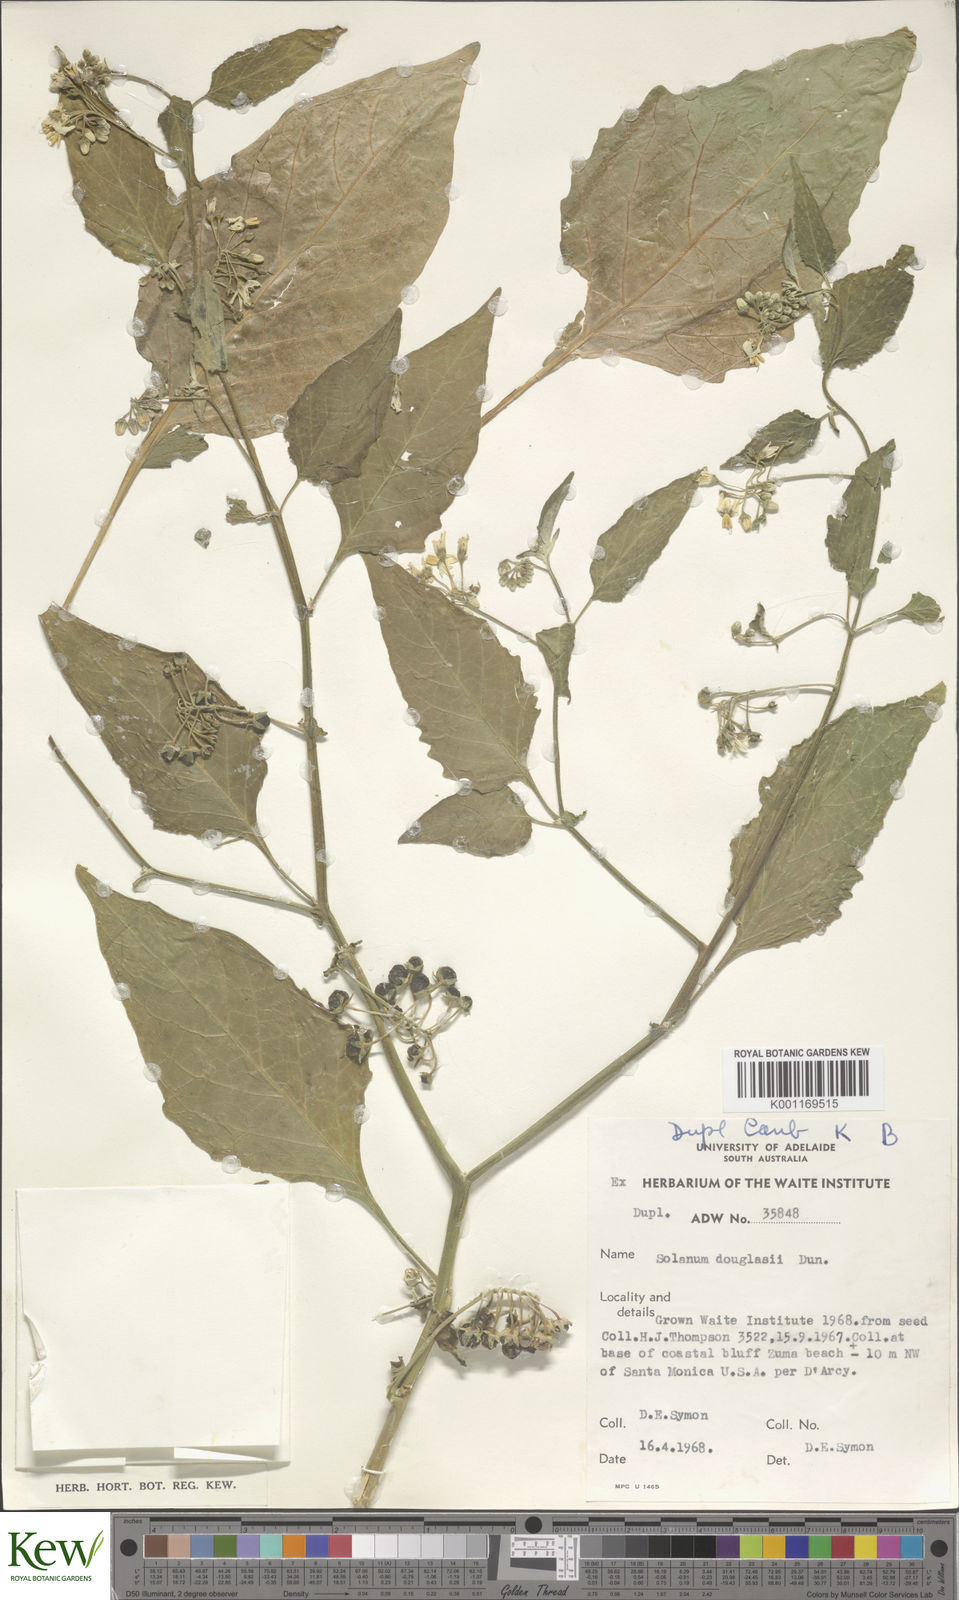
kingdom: Plantae
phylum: Tracheophyta
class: Magnoliopsida
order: Solanales
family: Solanaceae
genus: Solanum
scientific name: Solanum
